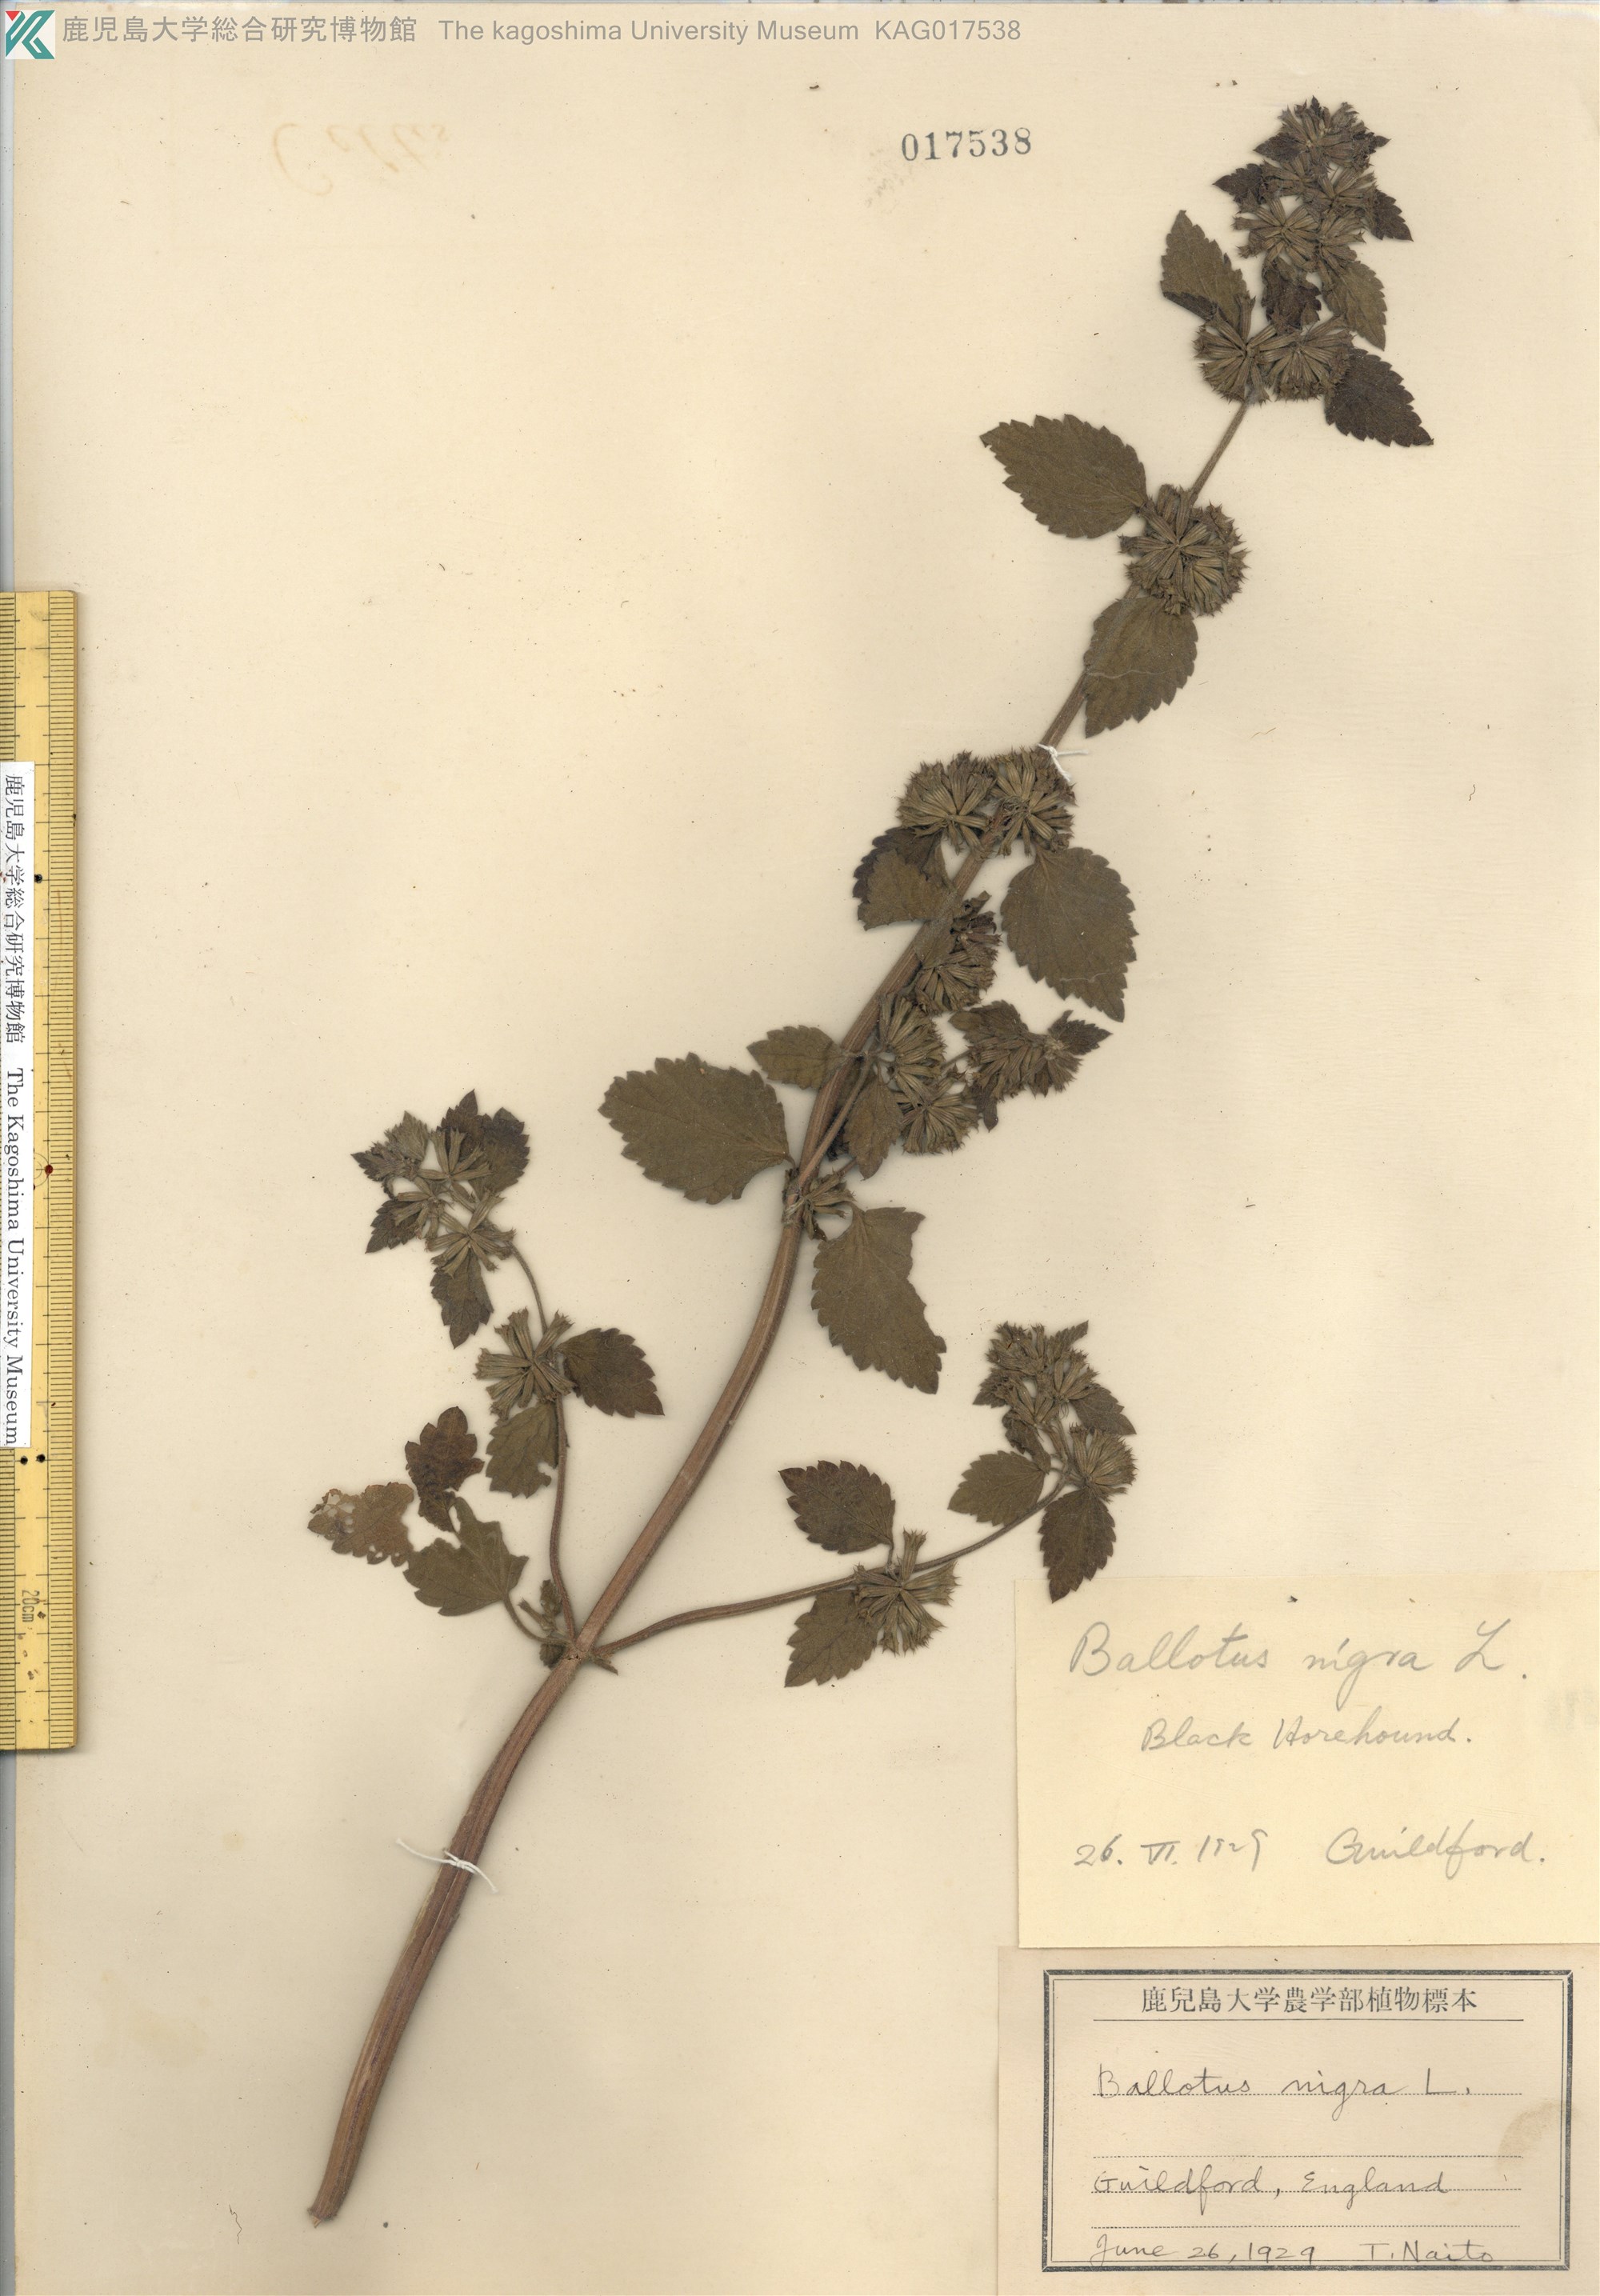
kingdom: Plantae
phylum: Tracheophyta
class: Magnoliopsida
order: Lamiales
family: Lamiaceae
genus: Ballota
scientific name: Ballota nigra
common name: Black horehound
